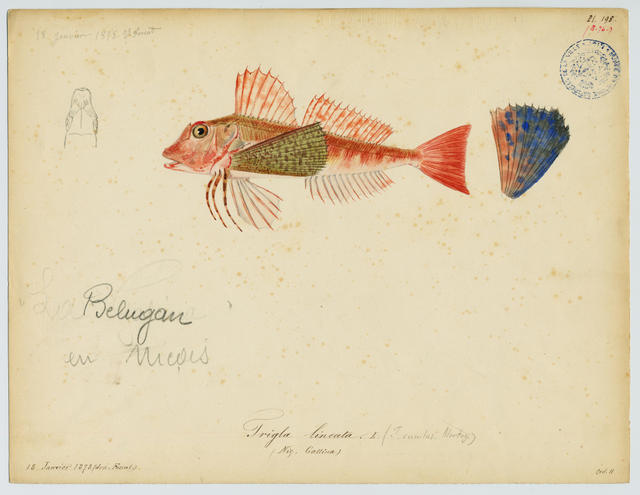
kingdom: Animalia
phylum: Chordata
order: Scorpaeniformes
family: Triglidae
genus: Chelidonichthys
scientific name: Chelidonichthys lastoviza
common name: Streaked gurnard
